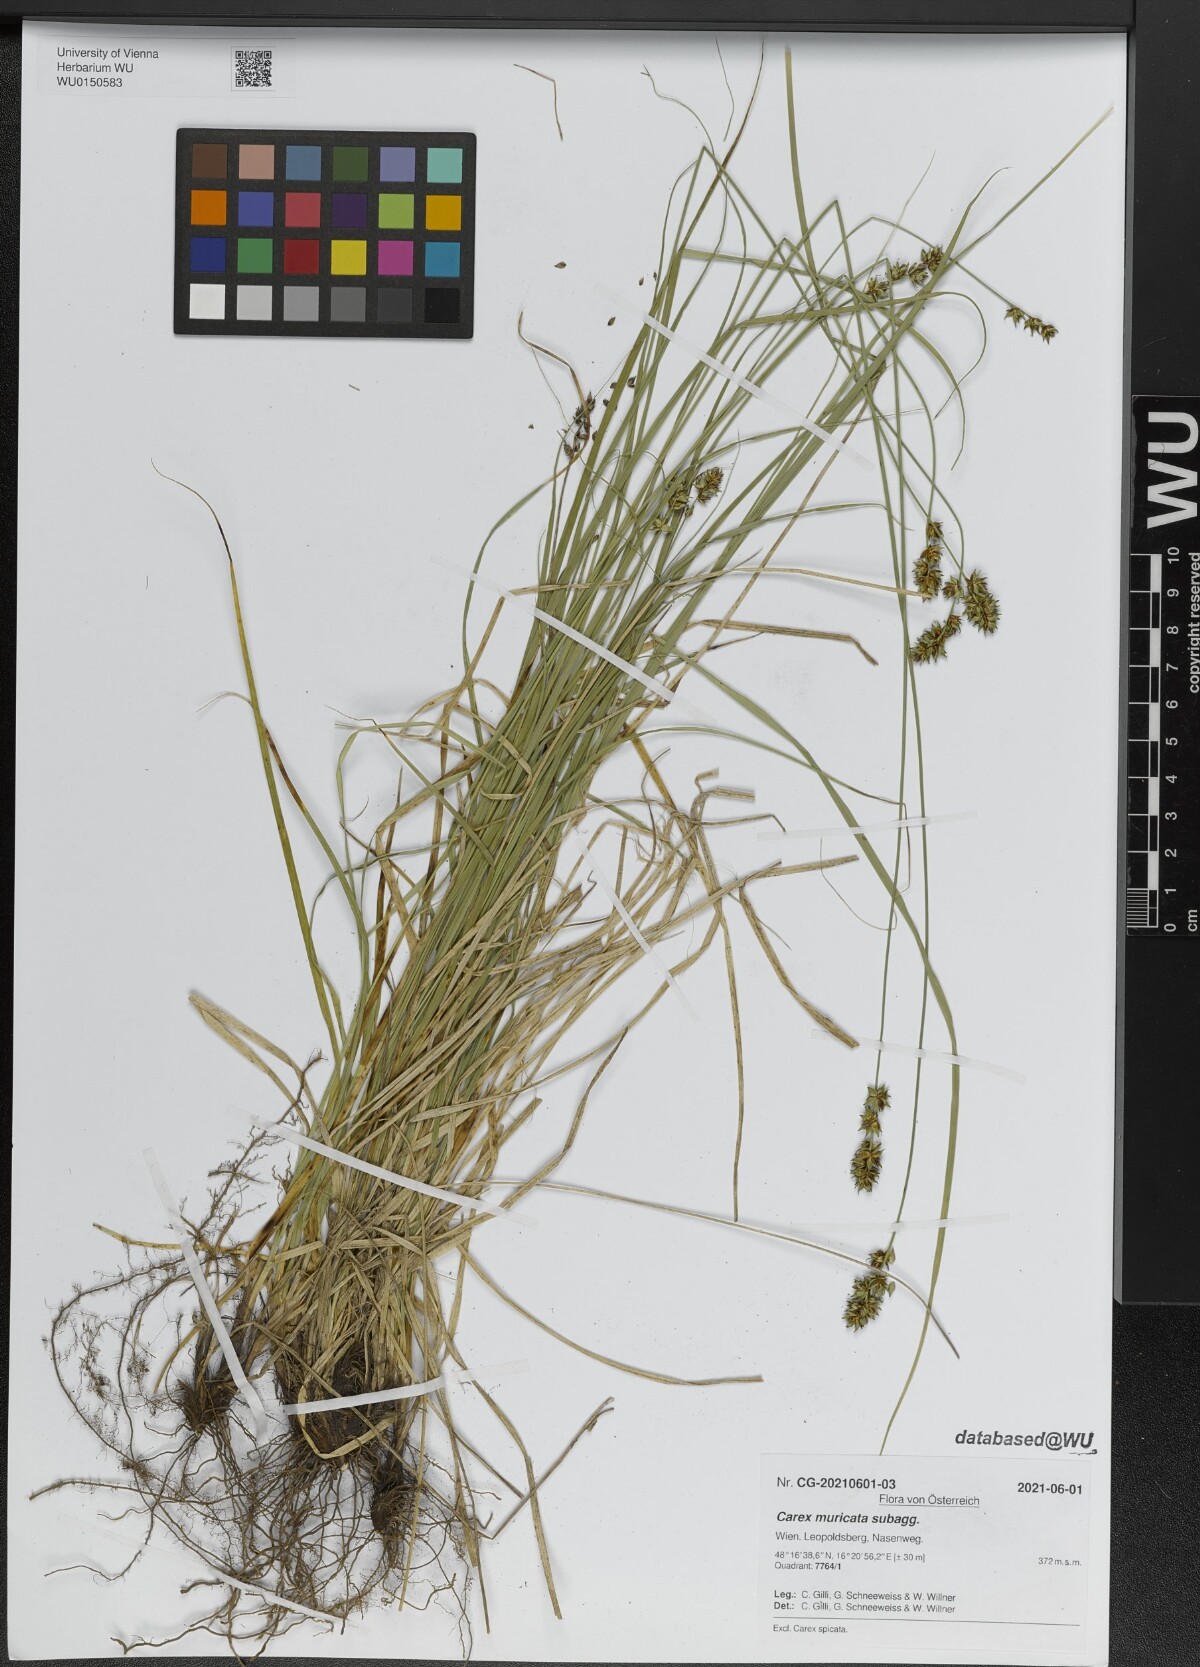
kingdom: Plantae
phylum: Tracheophyta
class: Liliopsida
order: Poales
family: Cyperaceae
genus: Carex
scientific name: Carex muricata
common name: Rough sedge
